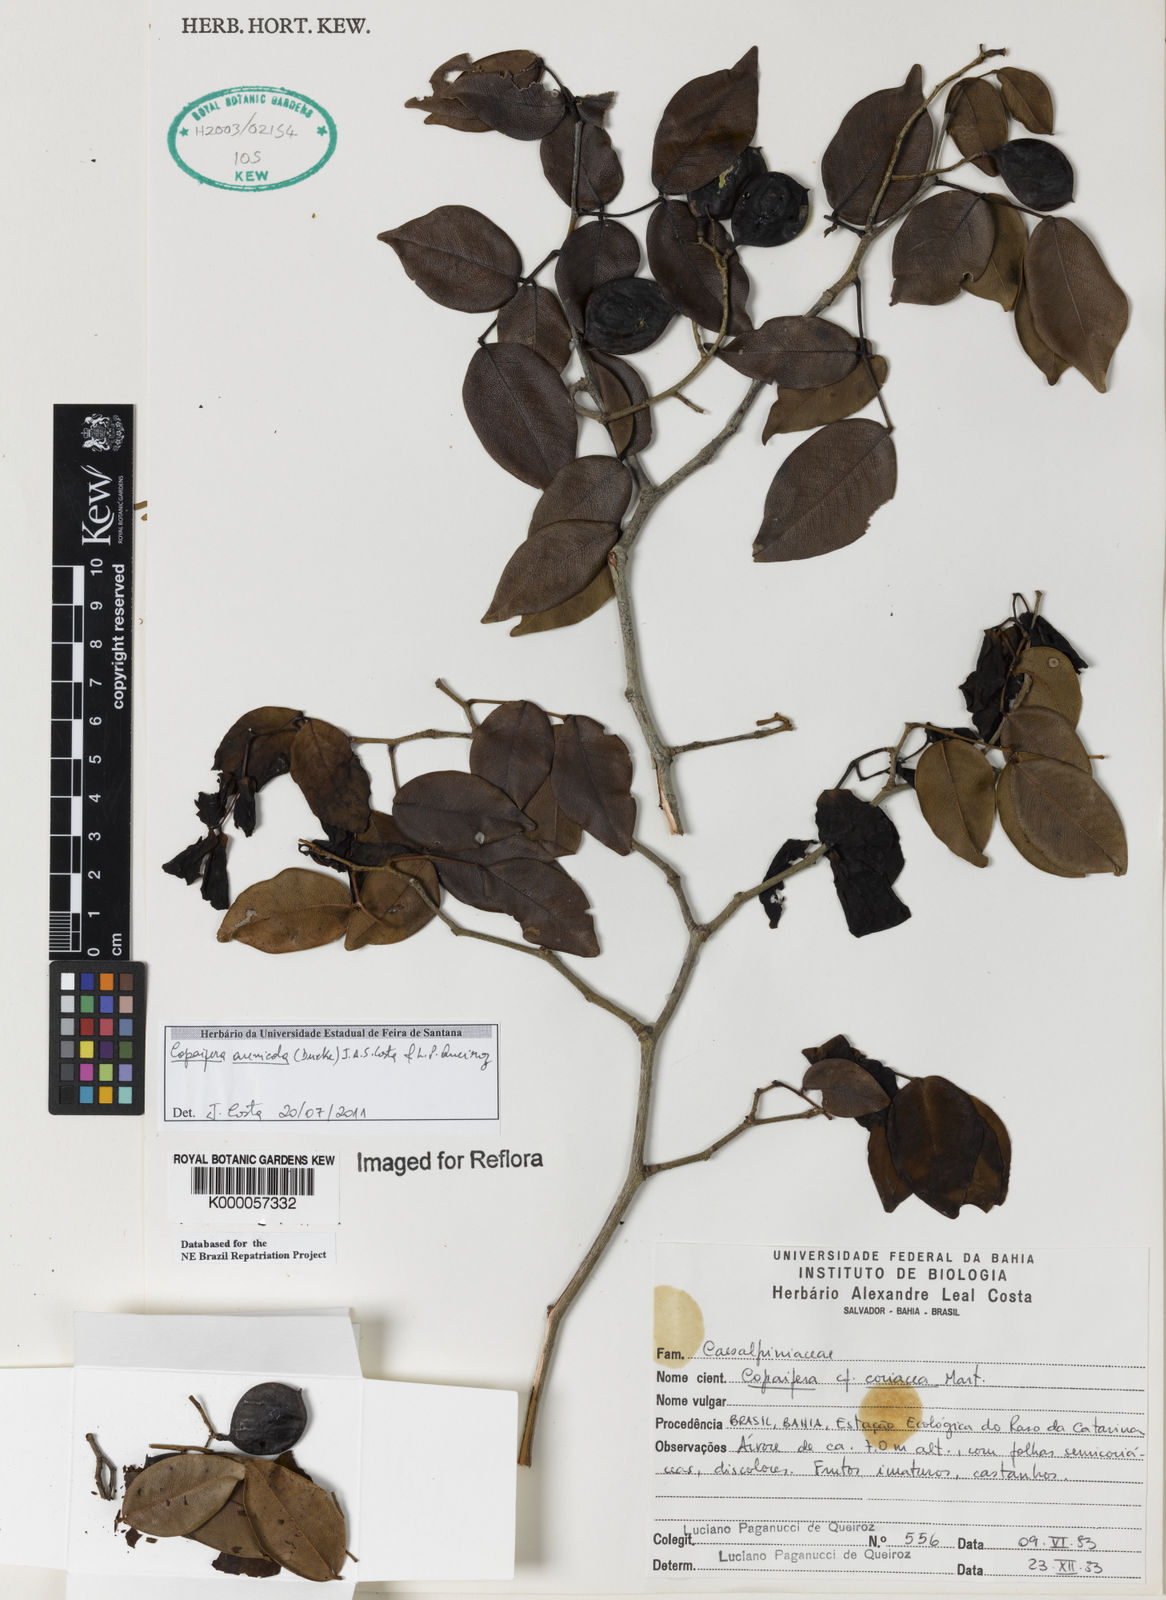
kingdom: Plantae
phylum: Tracheophyta
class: Magnoliopsida
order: Fabales
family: Fabaceae
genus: Copaifera
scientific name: Copaifera
